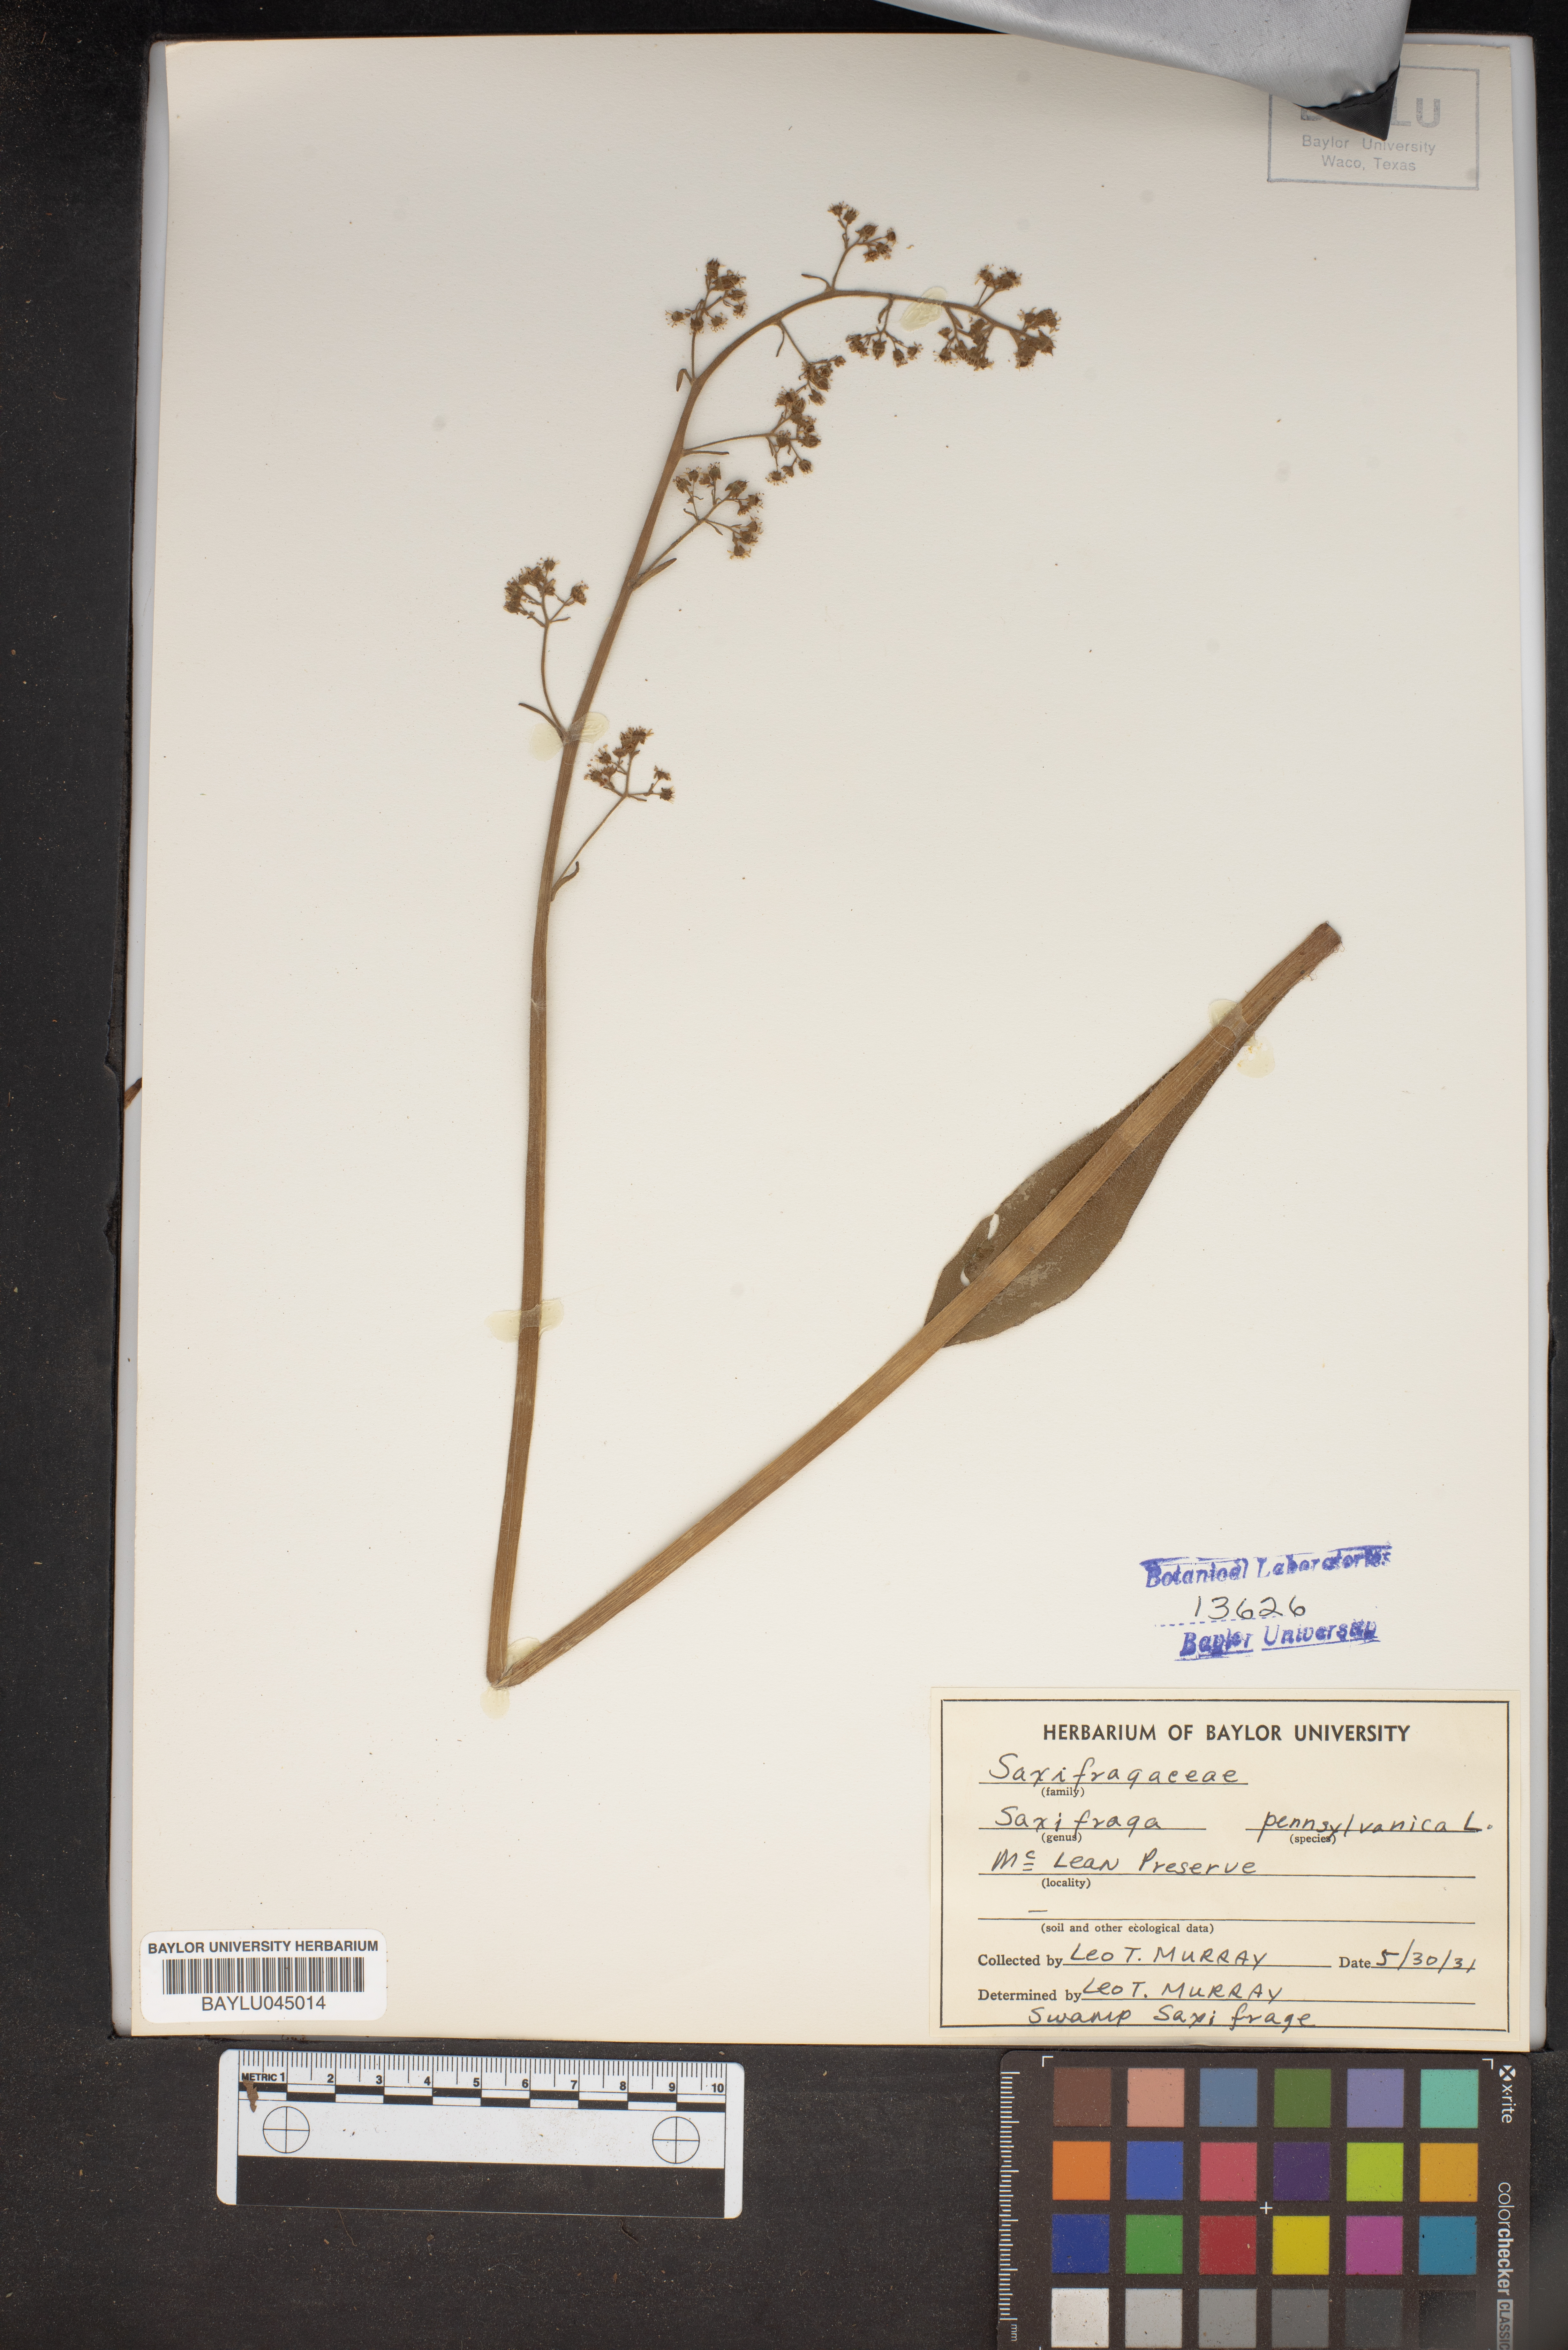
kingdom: Plantae
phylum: Tracheophyta
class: Magnoliopsida
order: Saxifragales
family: Saxifragaceae
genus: Micranthes
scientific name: Micranthes pensylvanica
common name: Marsh saxifrage
